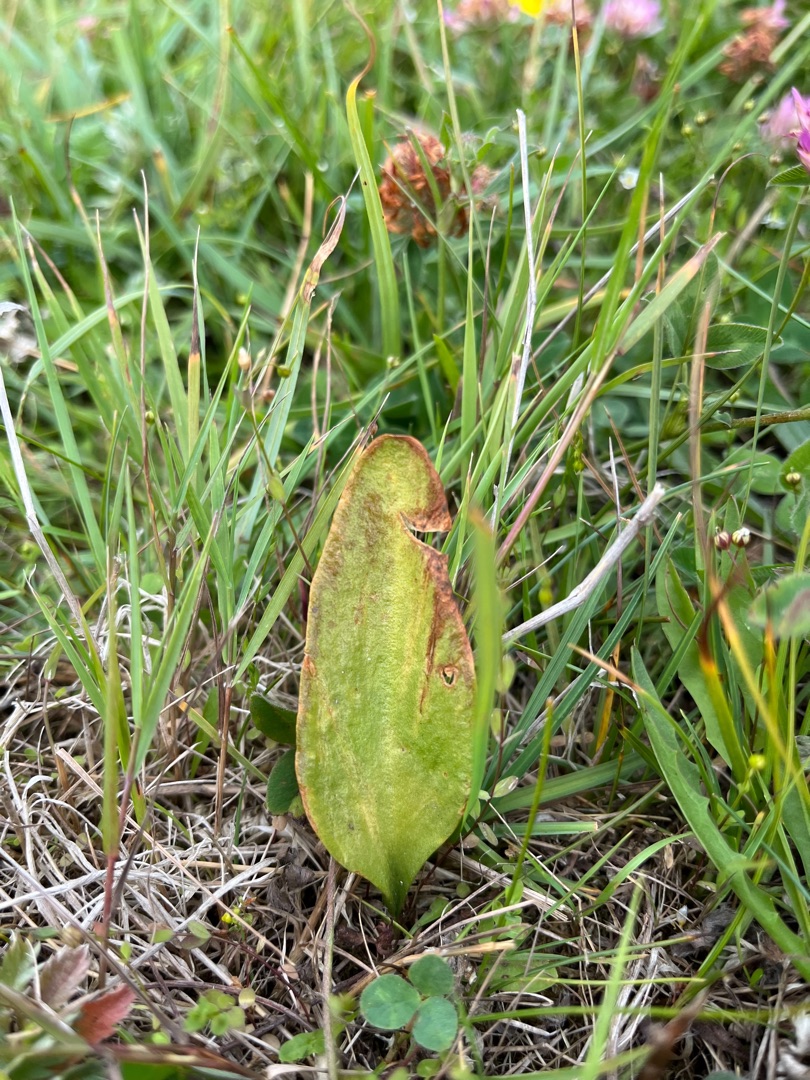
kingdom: Plantae
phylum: Tracheophyta
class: Polypodiopsida
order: Ophioglossales
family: Ophioglossaceae
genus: Ophioglossum
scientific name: Ophioglossum vulgatum
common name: Slangetunge
